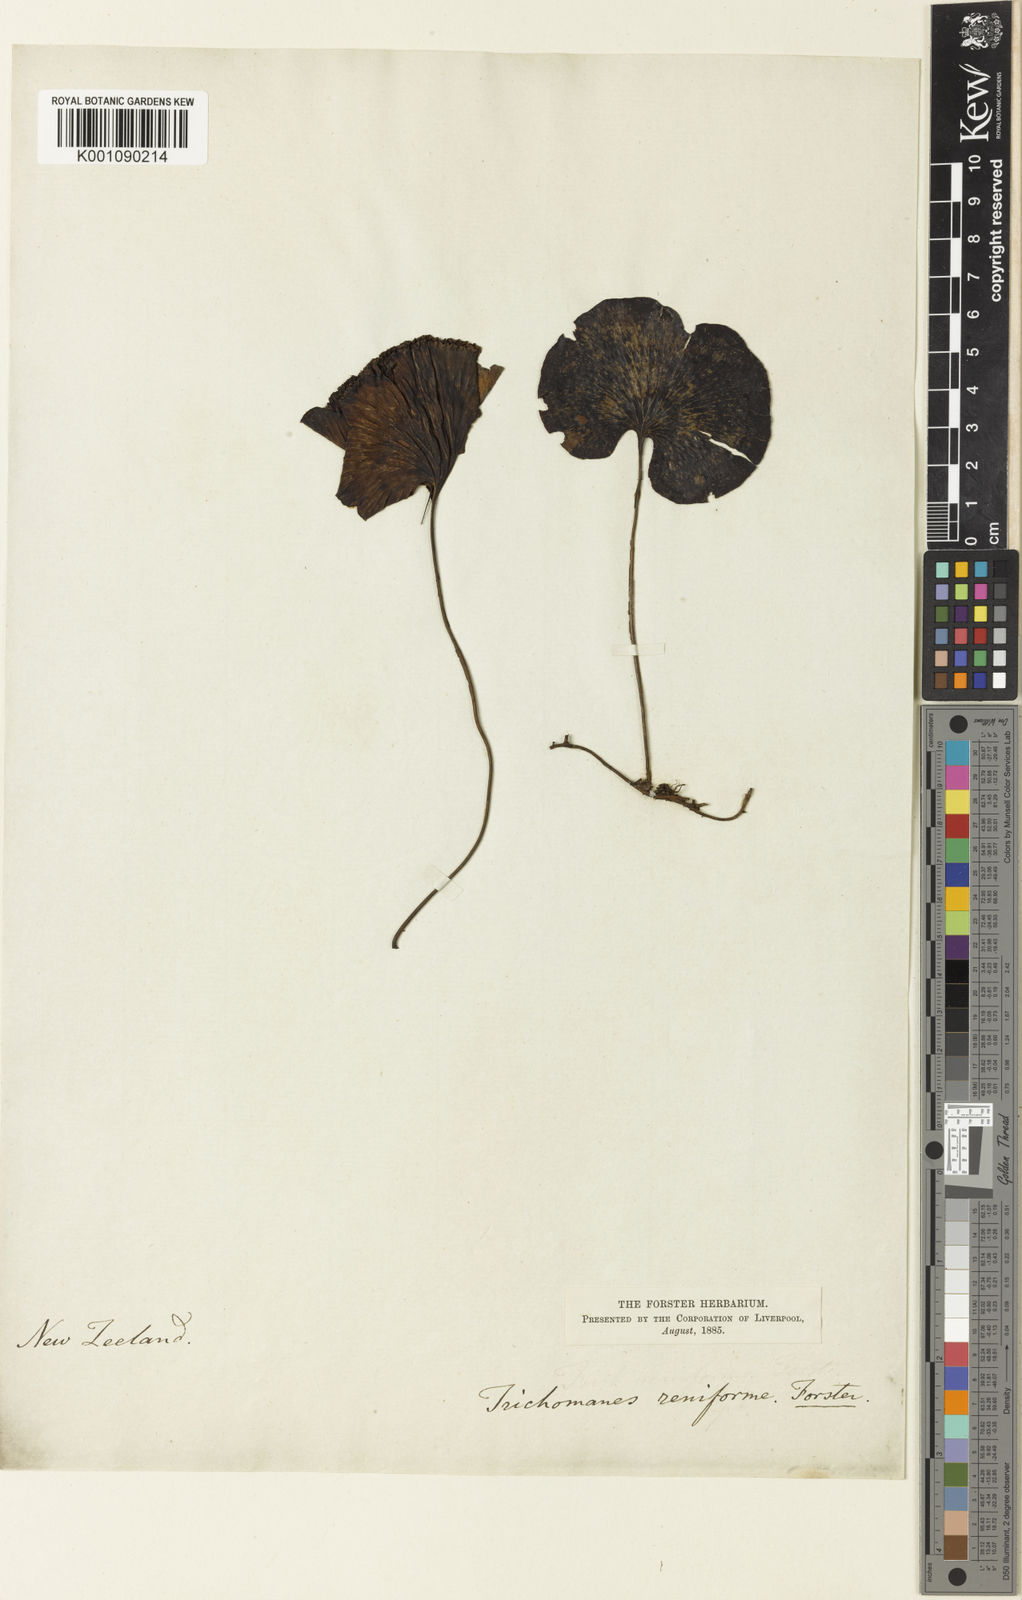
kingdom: Plantae
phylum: Tracheophyta
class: Polypodiopsida
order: Hymenophyllales
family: Hymenophyllaceae
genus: Hymenophyllum
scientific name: Hymenophyllum nephrophyllum
